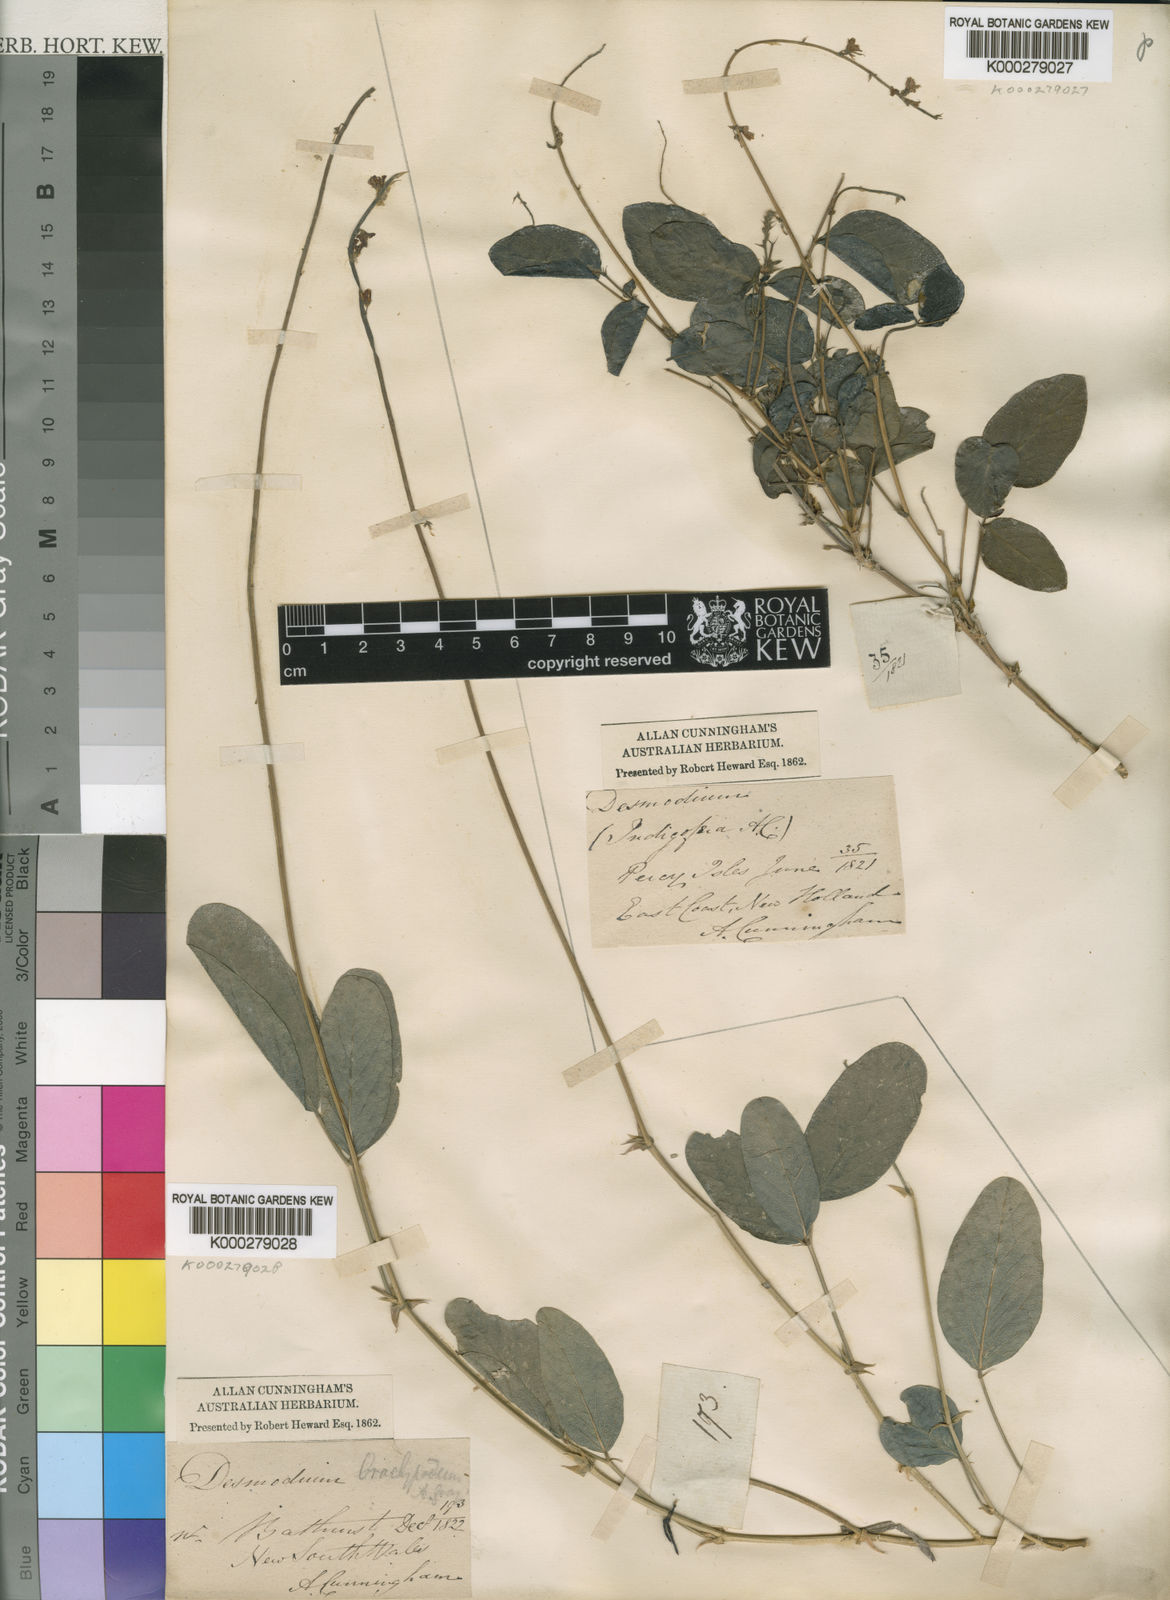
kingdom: Plantae
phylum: Tracheophyta
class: Magnoliopsida
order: Fabales
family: Fabaceae
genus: Oxytes
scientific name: Oxytes brachypoda
